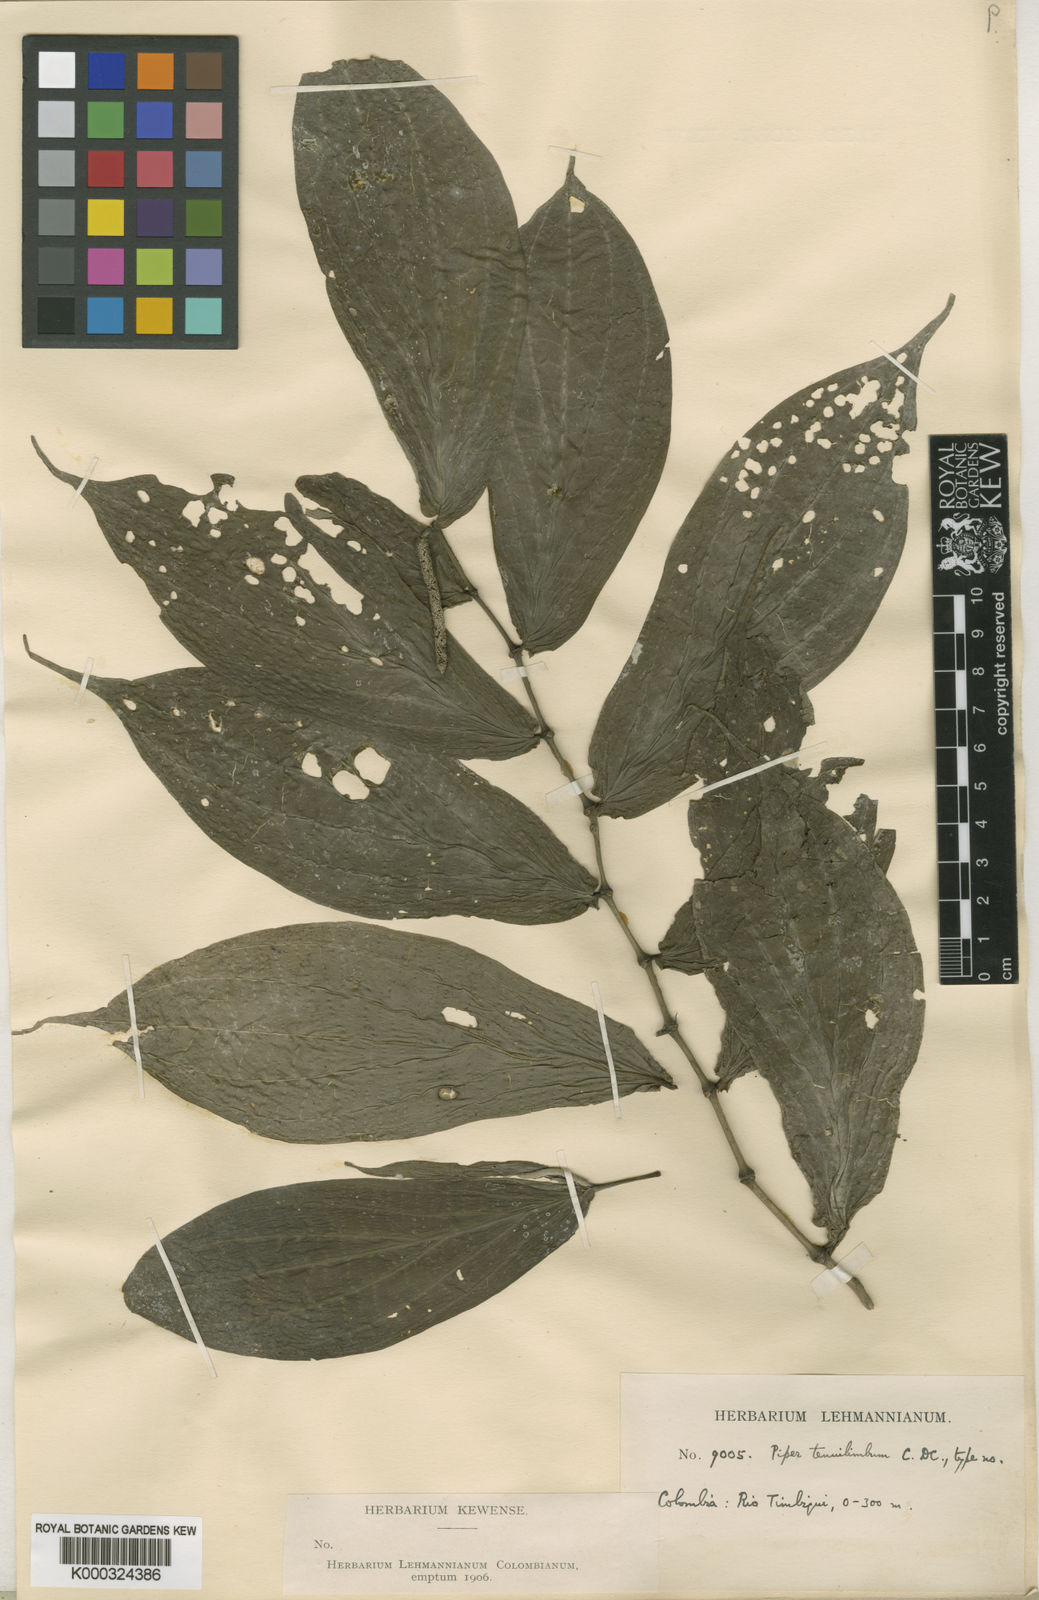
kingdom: Plantae
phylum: Tracheophyta
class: Magnoliopsida
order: Piperales
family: Piperaceae
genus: Piper
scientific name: Piper tenuilimbum
